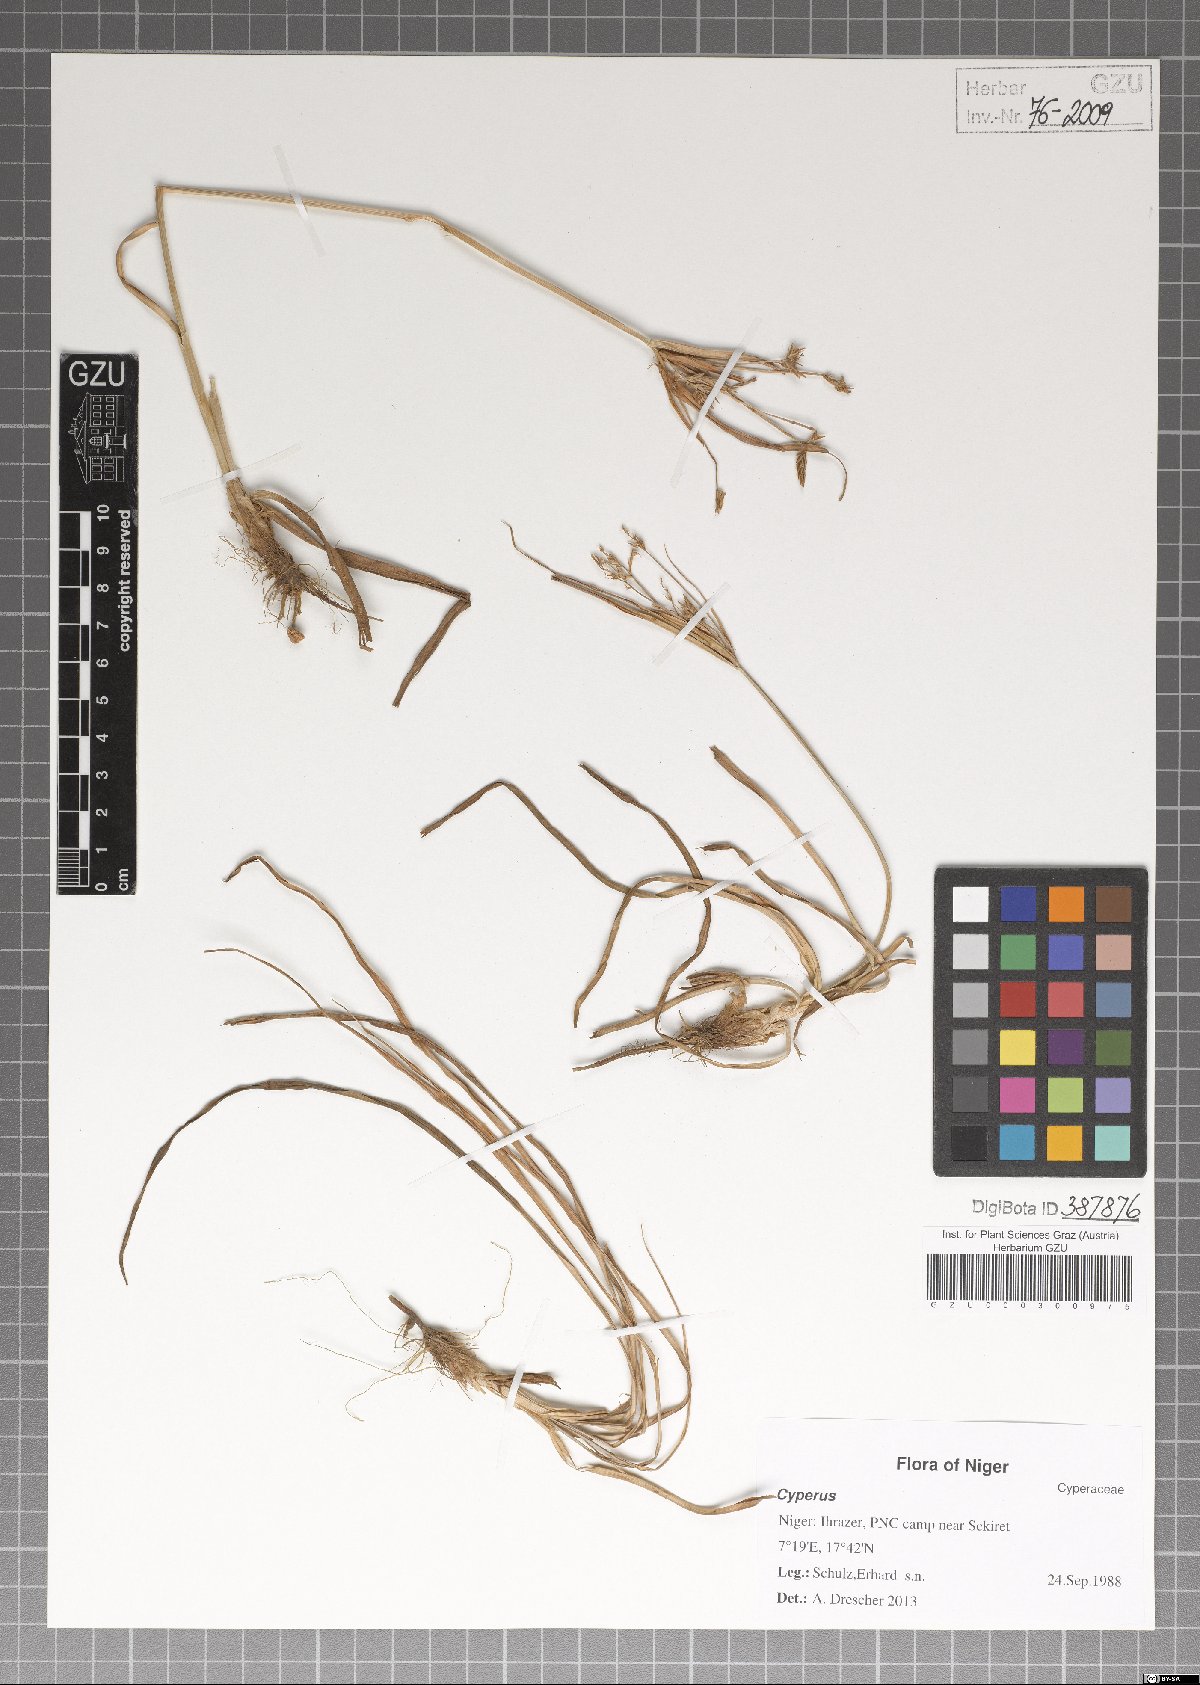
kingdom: Plantae
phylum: Tracheophyta
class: Liliopsida
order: Poales
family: Cyperaceae
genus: Cyperus
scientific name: Cyperus
